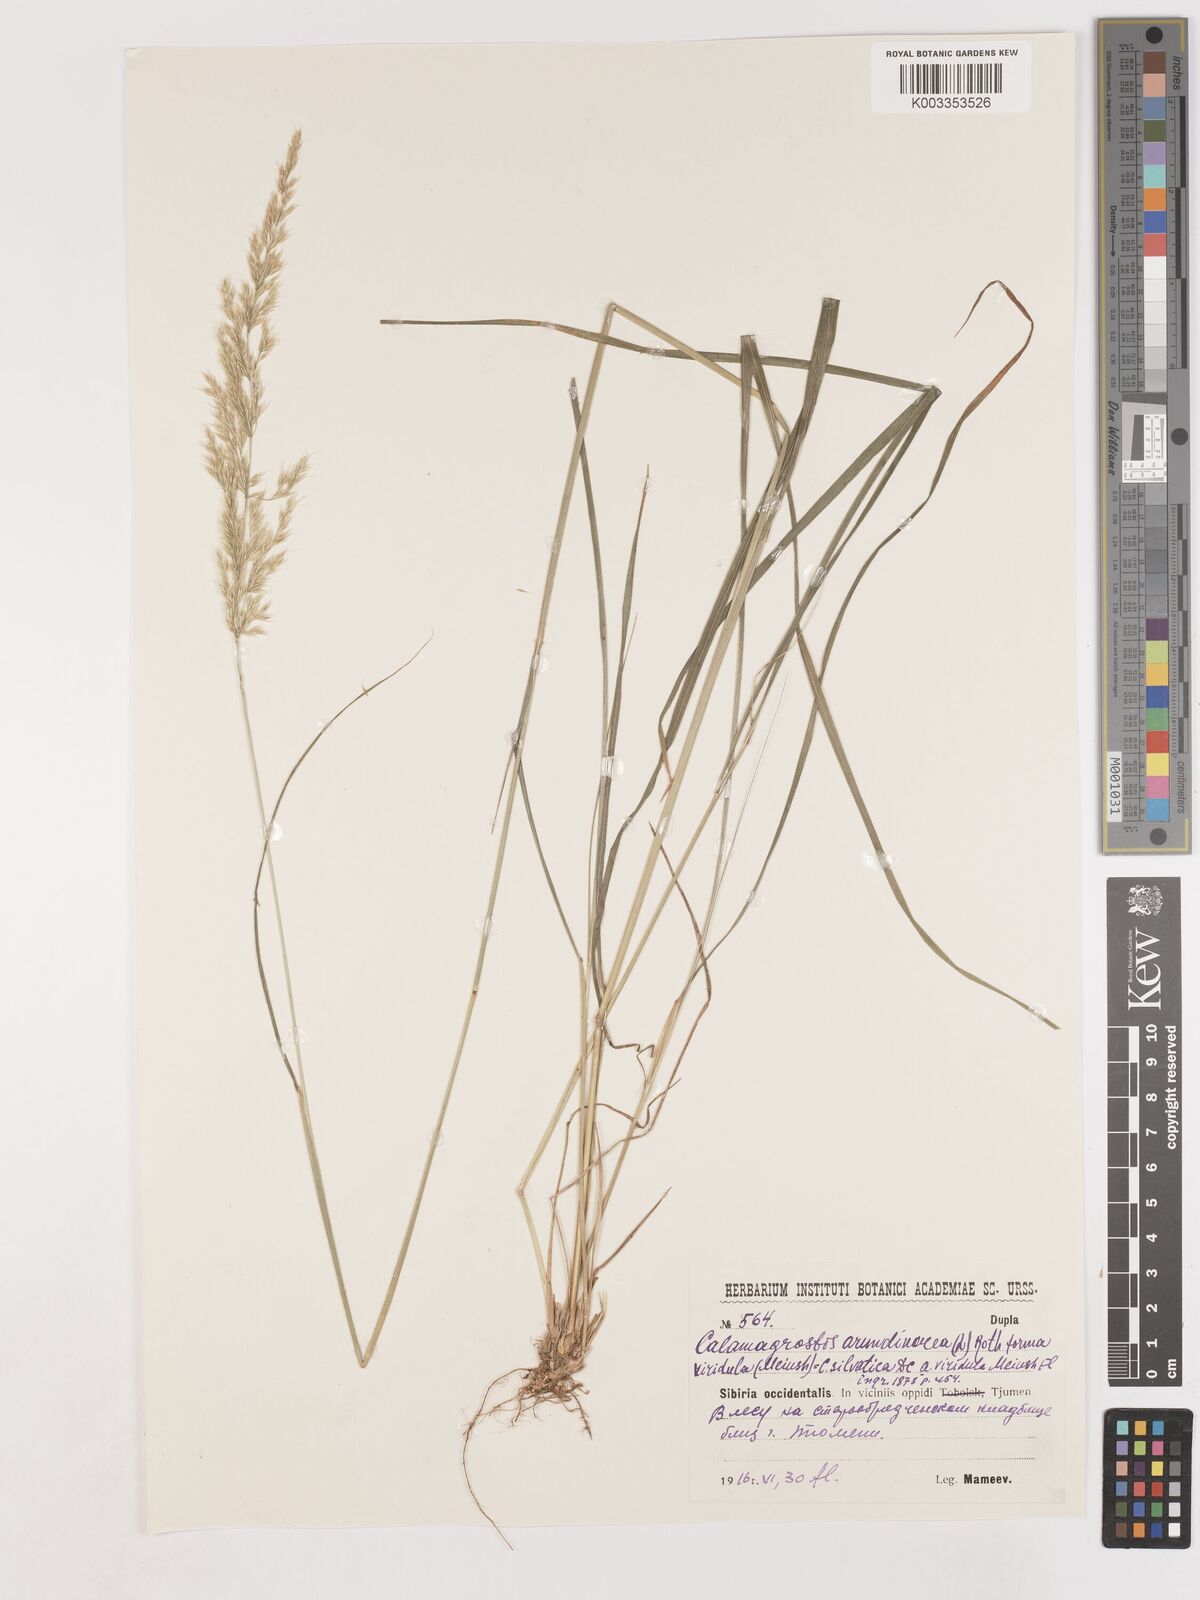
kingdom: Plantae
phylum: Tracheophyta
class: Liliopsida
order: Poales
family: Poaceae
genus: Calamagrostis
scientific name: Calamagrostis
